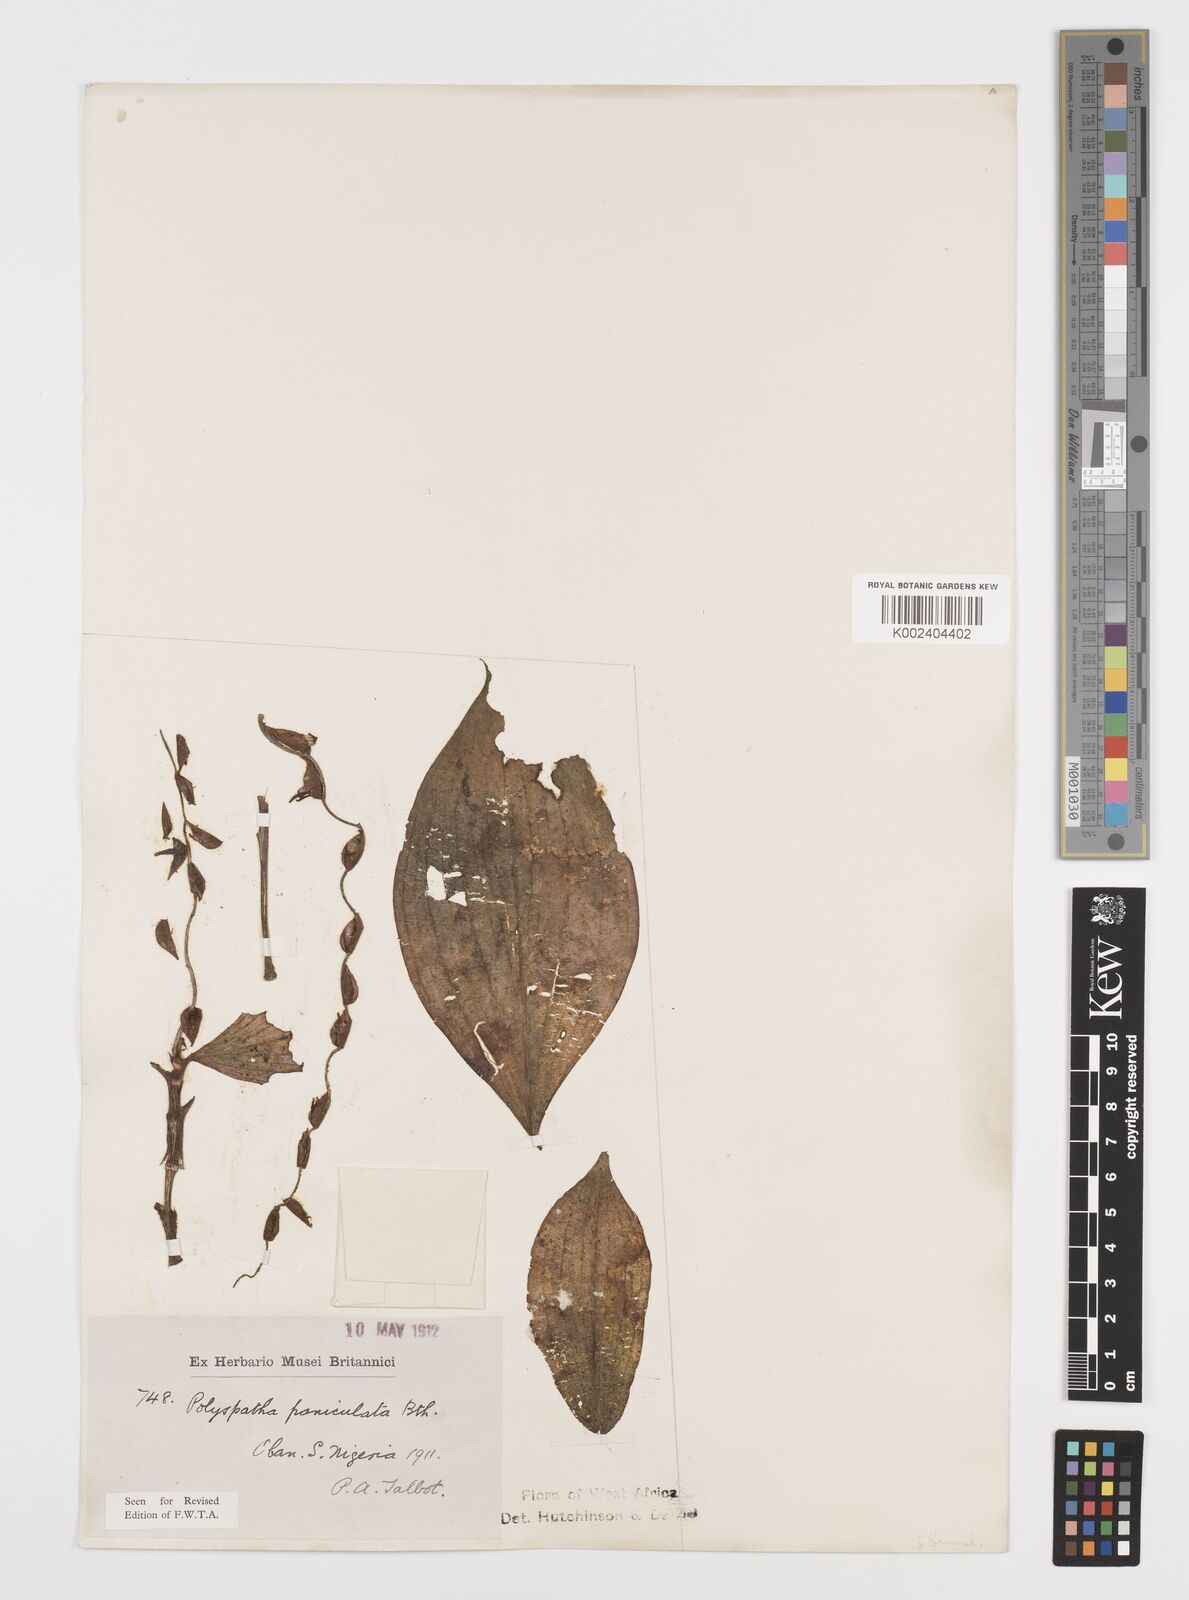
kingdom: Plantae
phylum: Tracheophyta
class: Liliopsida
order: Commelinales
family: Commelinaceae
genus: Polyspatha
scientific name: Polyspatha paniculata
